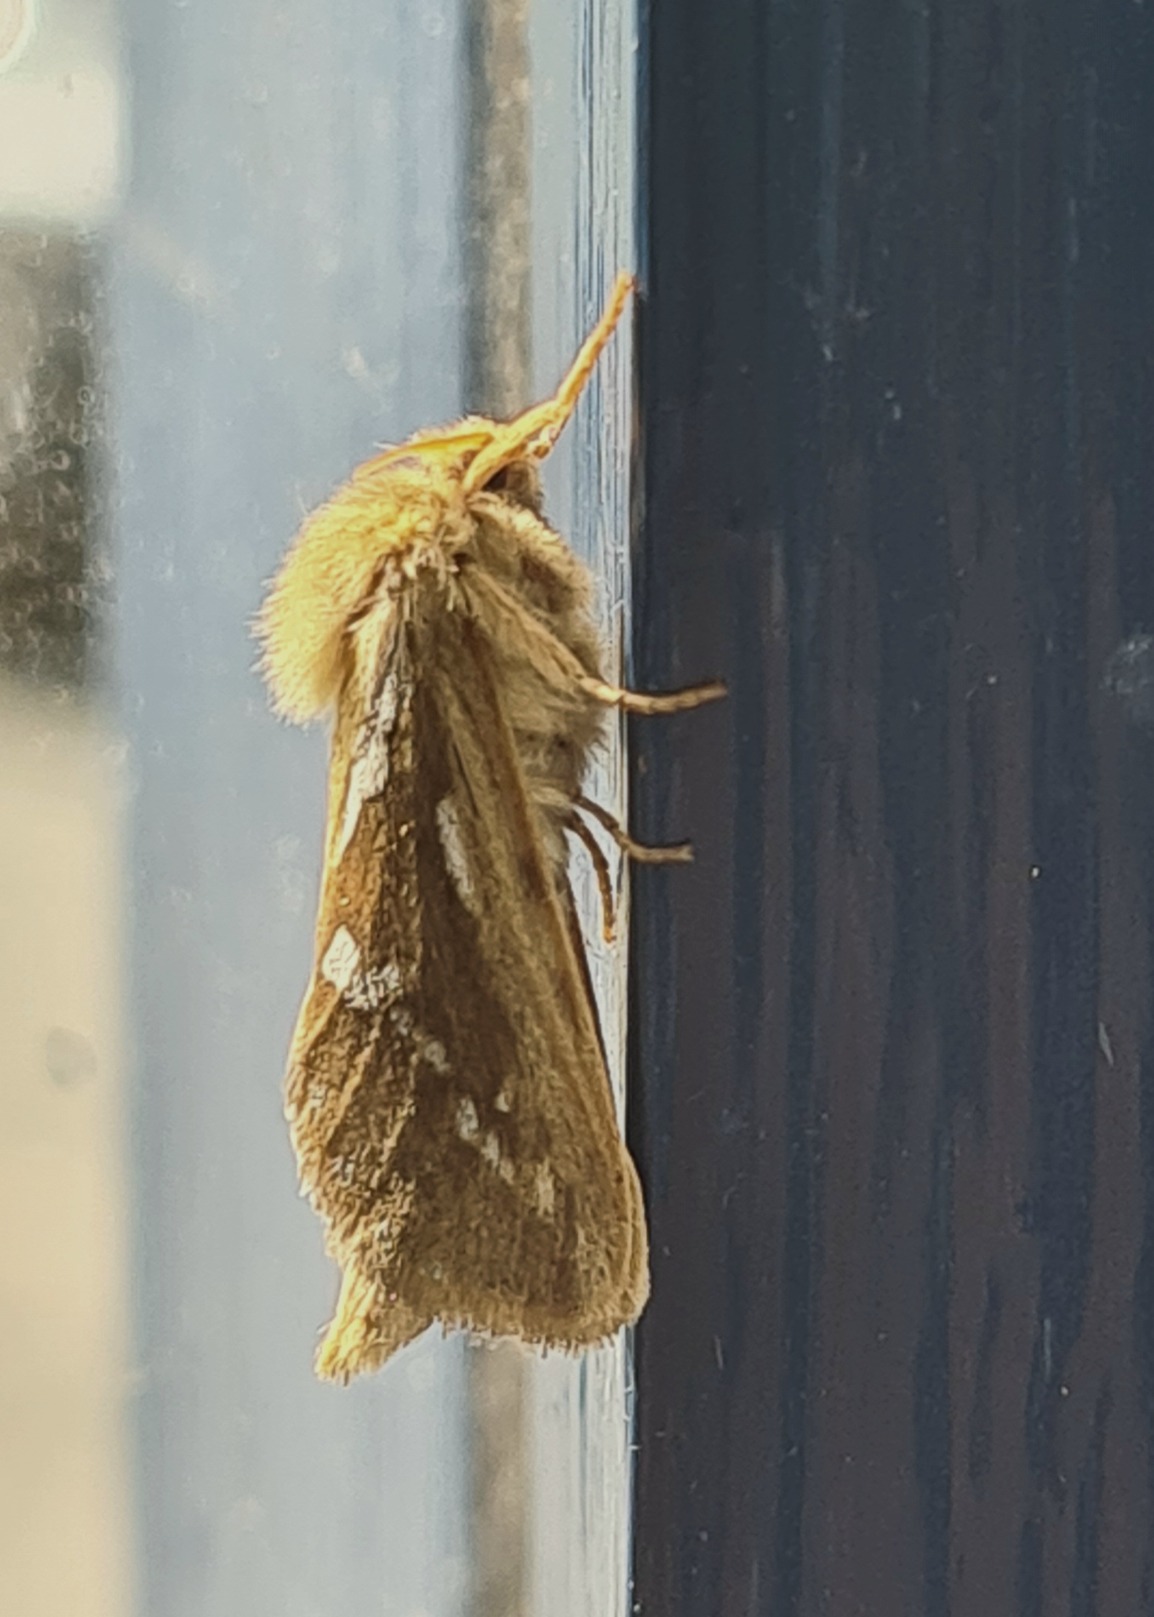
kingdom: Animalia
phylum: Arthropoda
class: Insecta
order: Lepidoptera
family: Hepialidae
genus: Korscheltellus
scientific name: Korscheltellus lupulina
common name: Konvalrodæder
